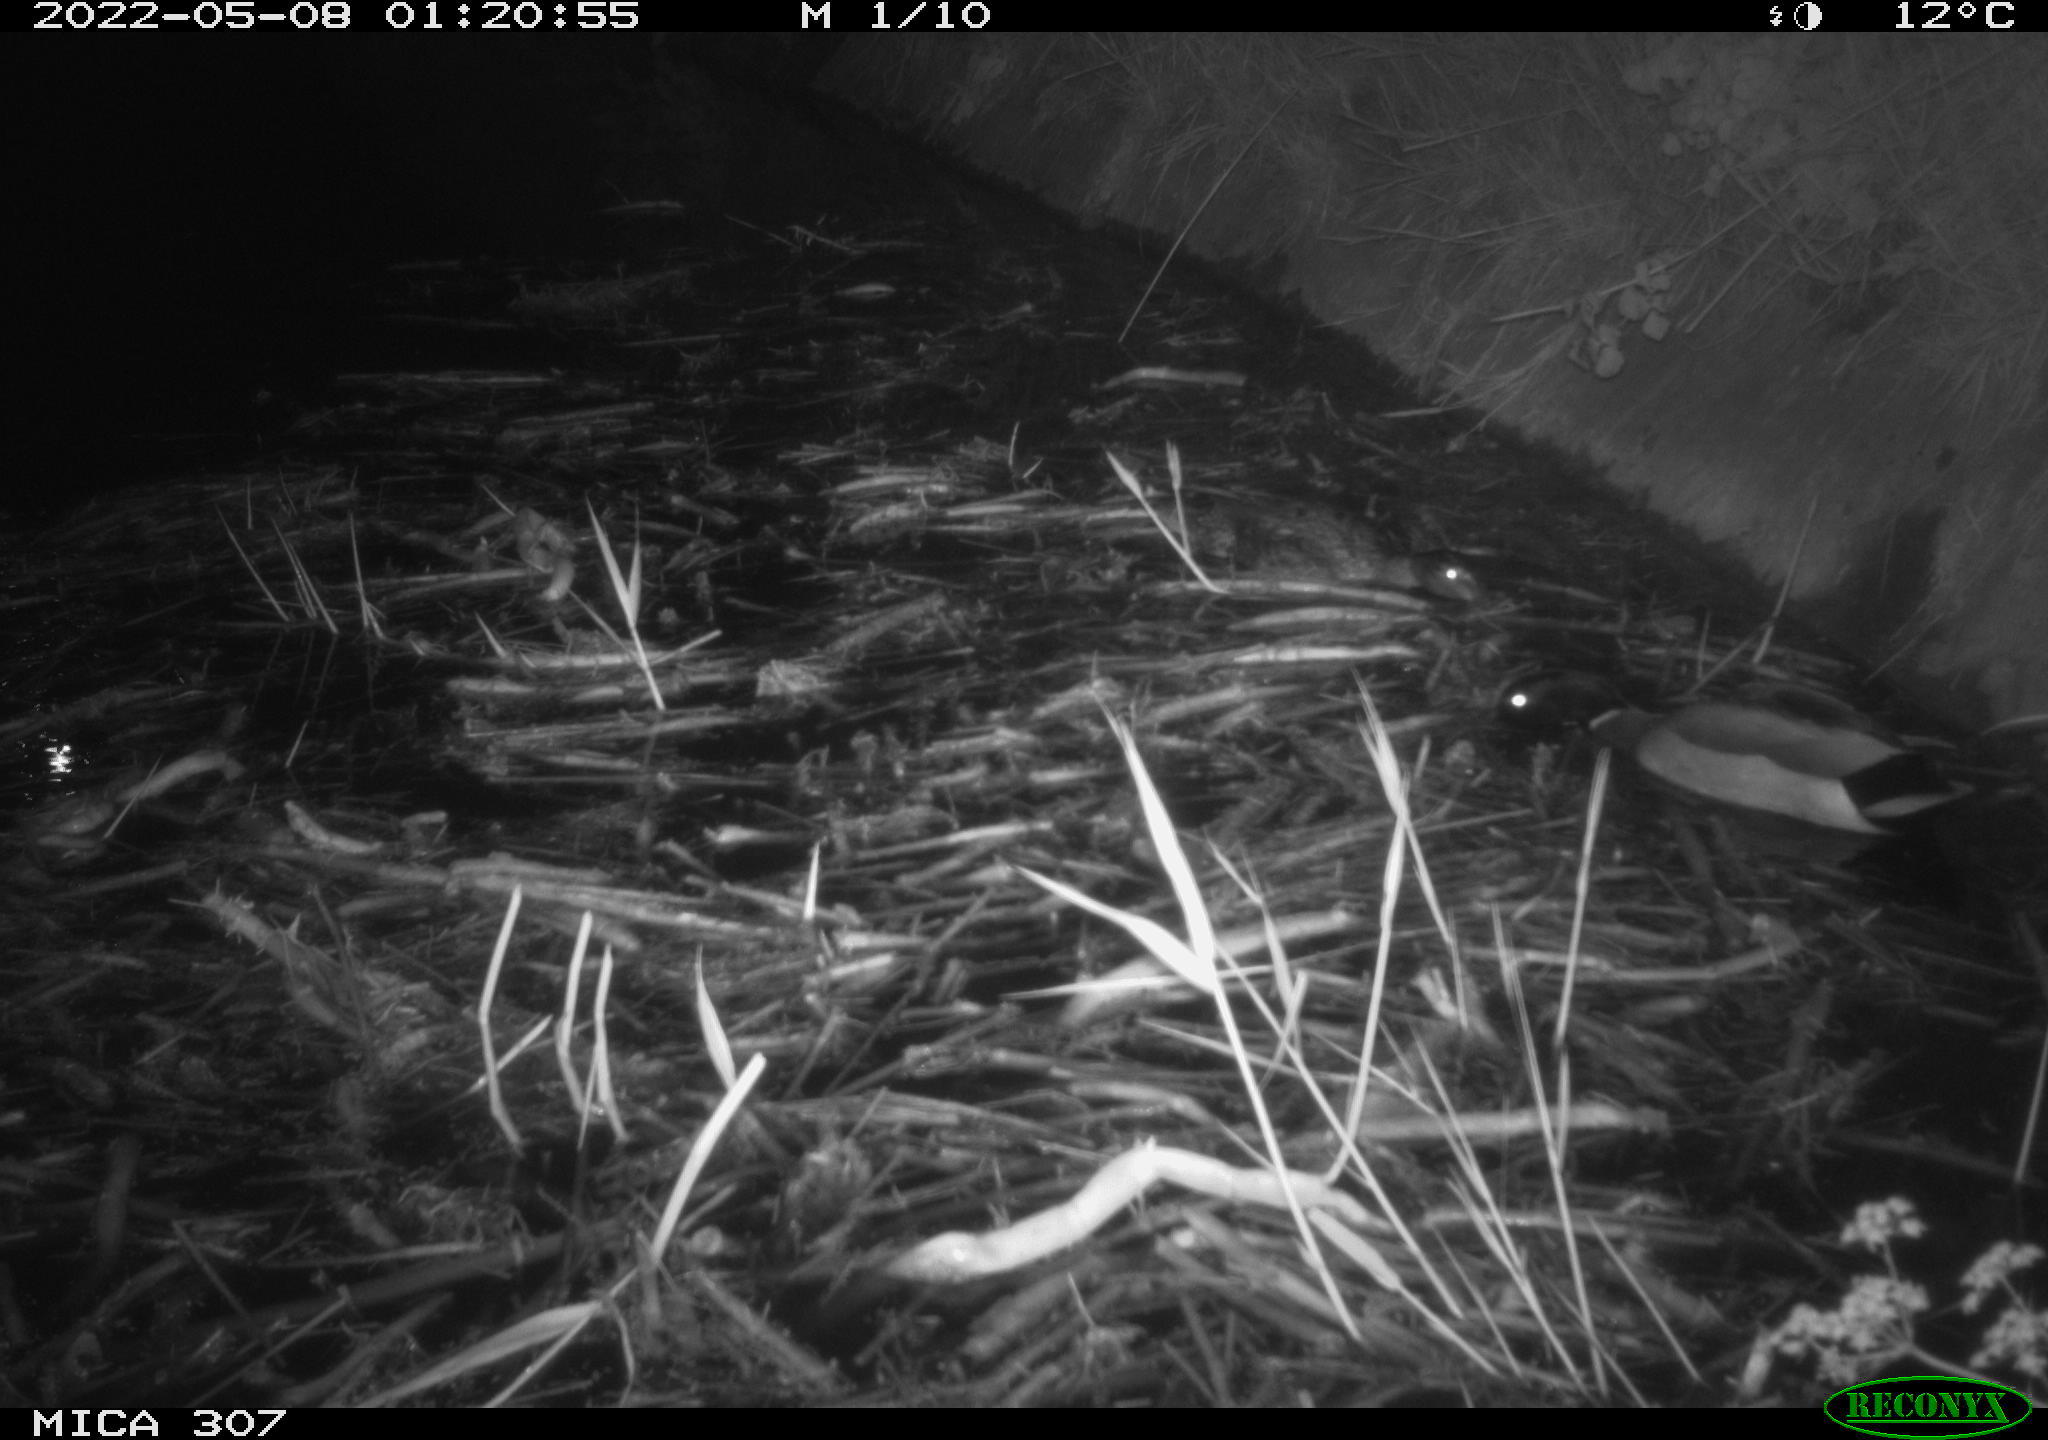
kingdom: Animalia
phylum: Chordata
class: Aves
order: Anseriformes
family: Anatidae
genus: Anas
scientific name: Anas platyrhynchos
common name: Mallard
